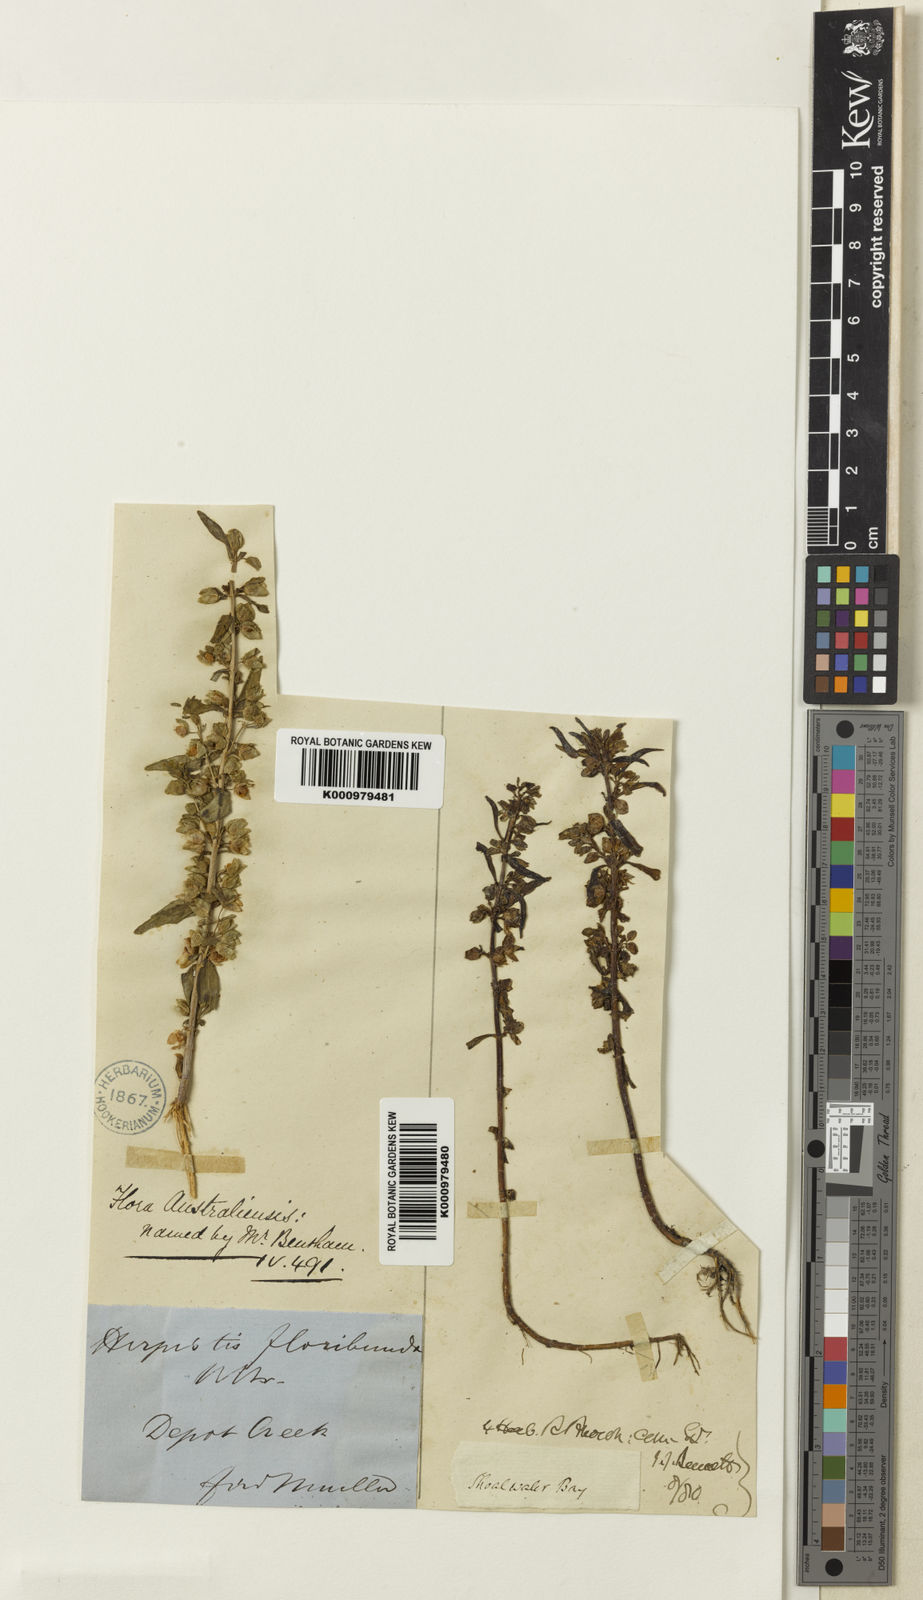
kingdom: Plantae
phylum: Tracheophyta
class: Magnoliopsida
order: Lamiales
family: Plantaginaceae
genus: Bacopa
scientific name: Bacopa floribunda
